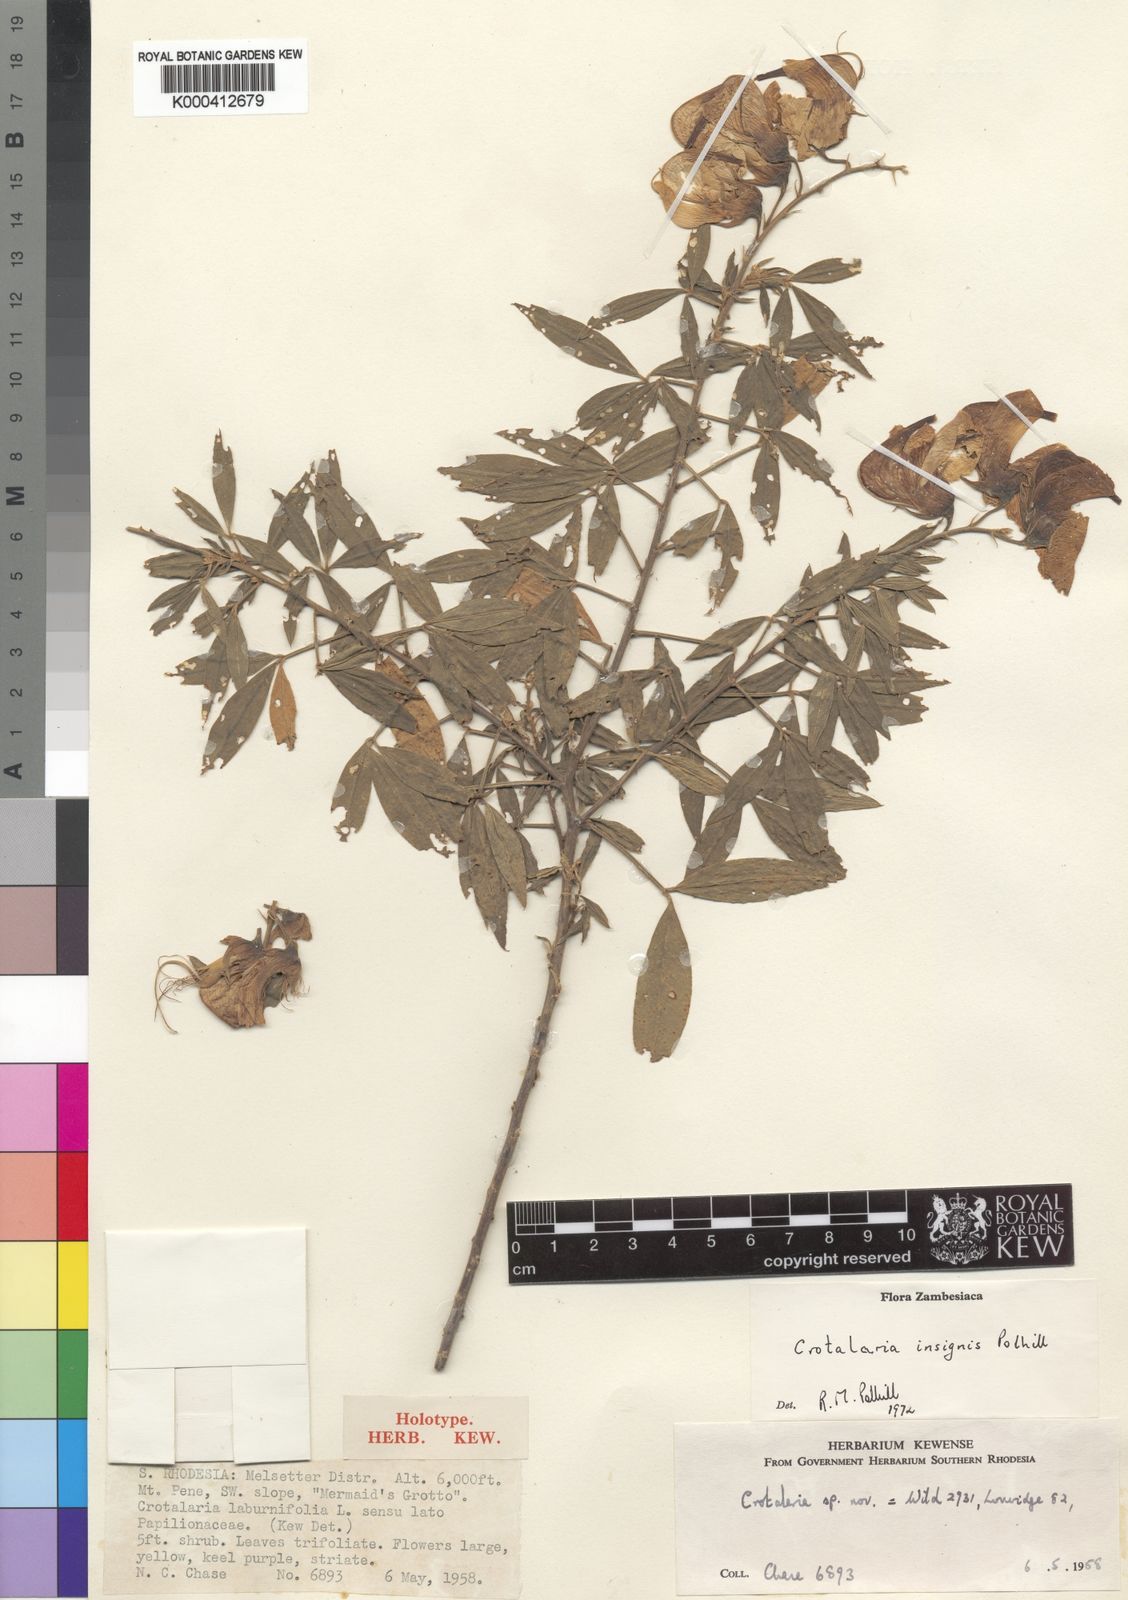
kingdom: Plantae
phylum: Tracheophyta
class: Magnoliopsida
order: Fabales
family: Fabaceae
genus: Crotalaria
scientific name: Crotalaria insignis
